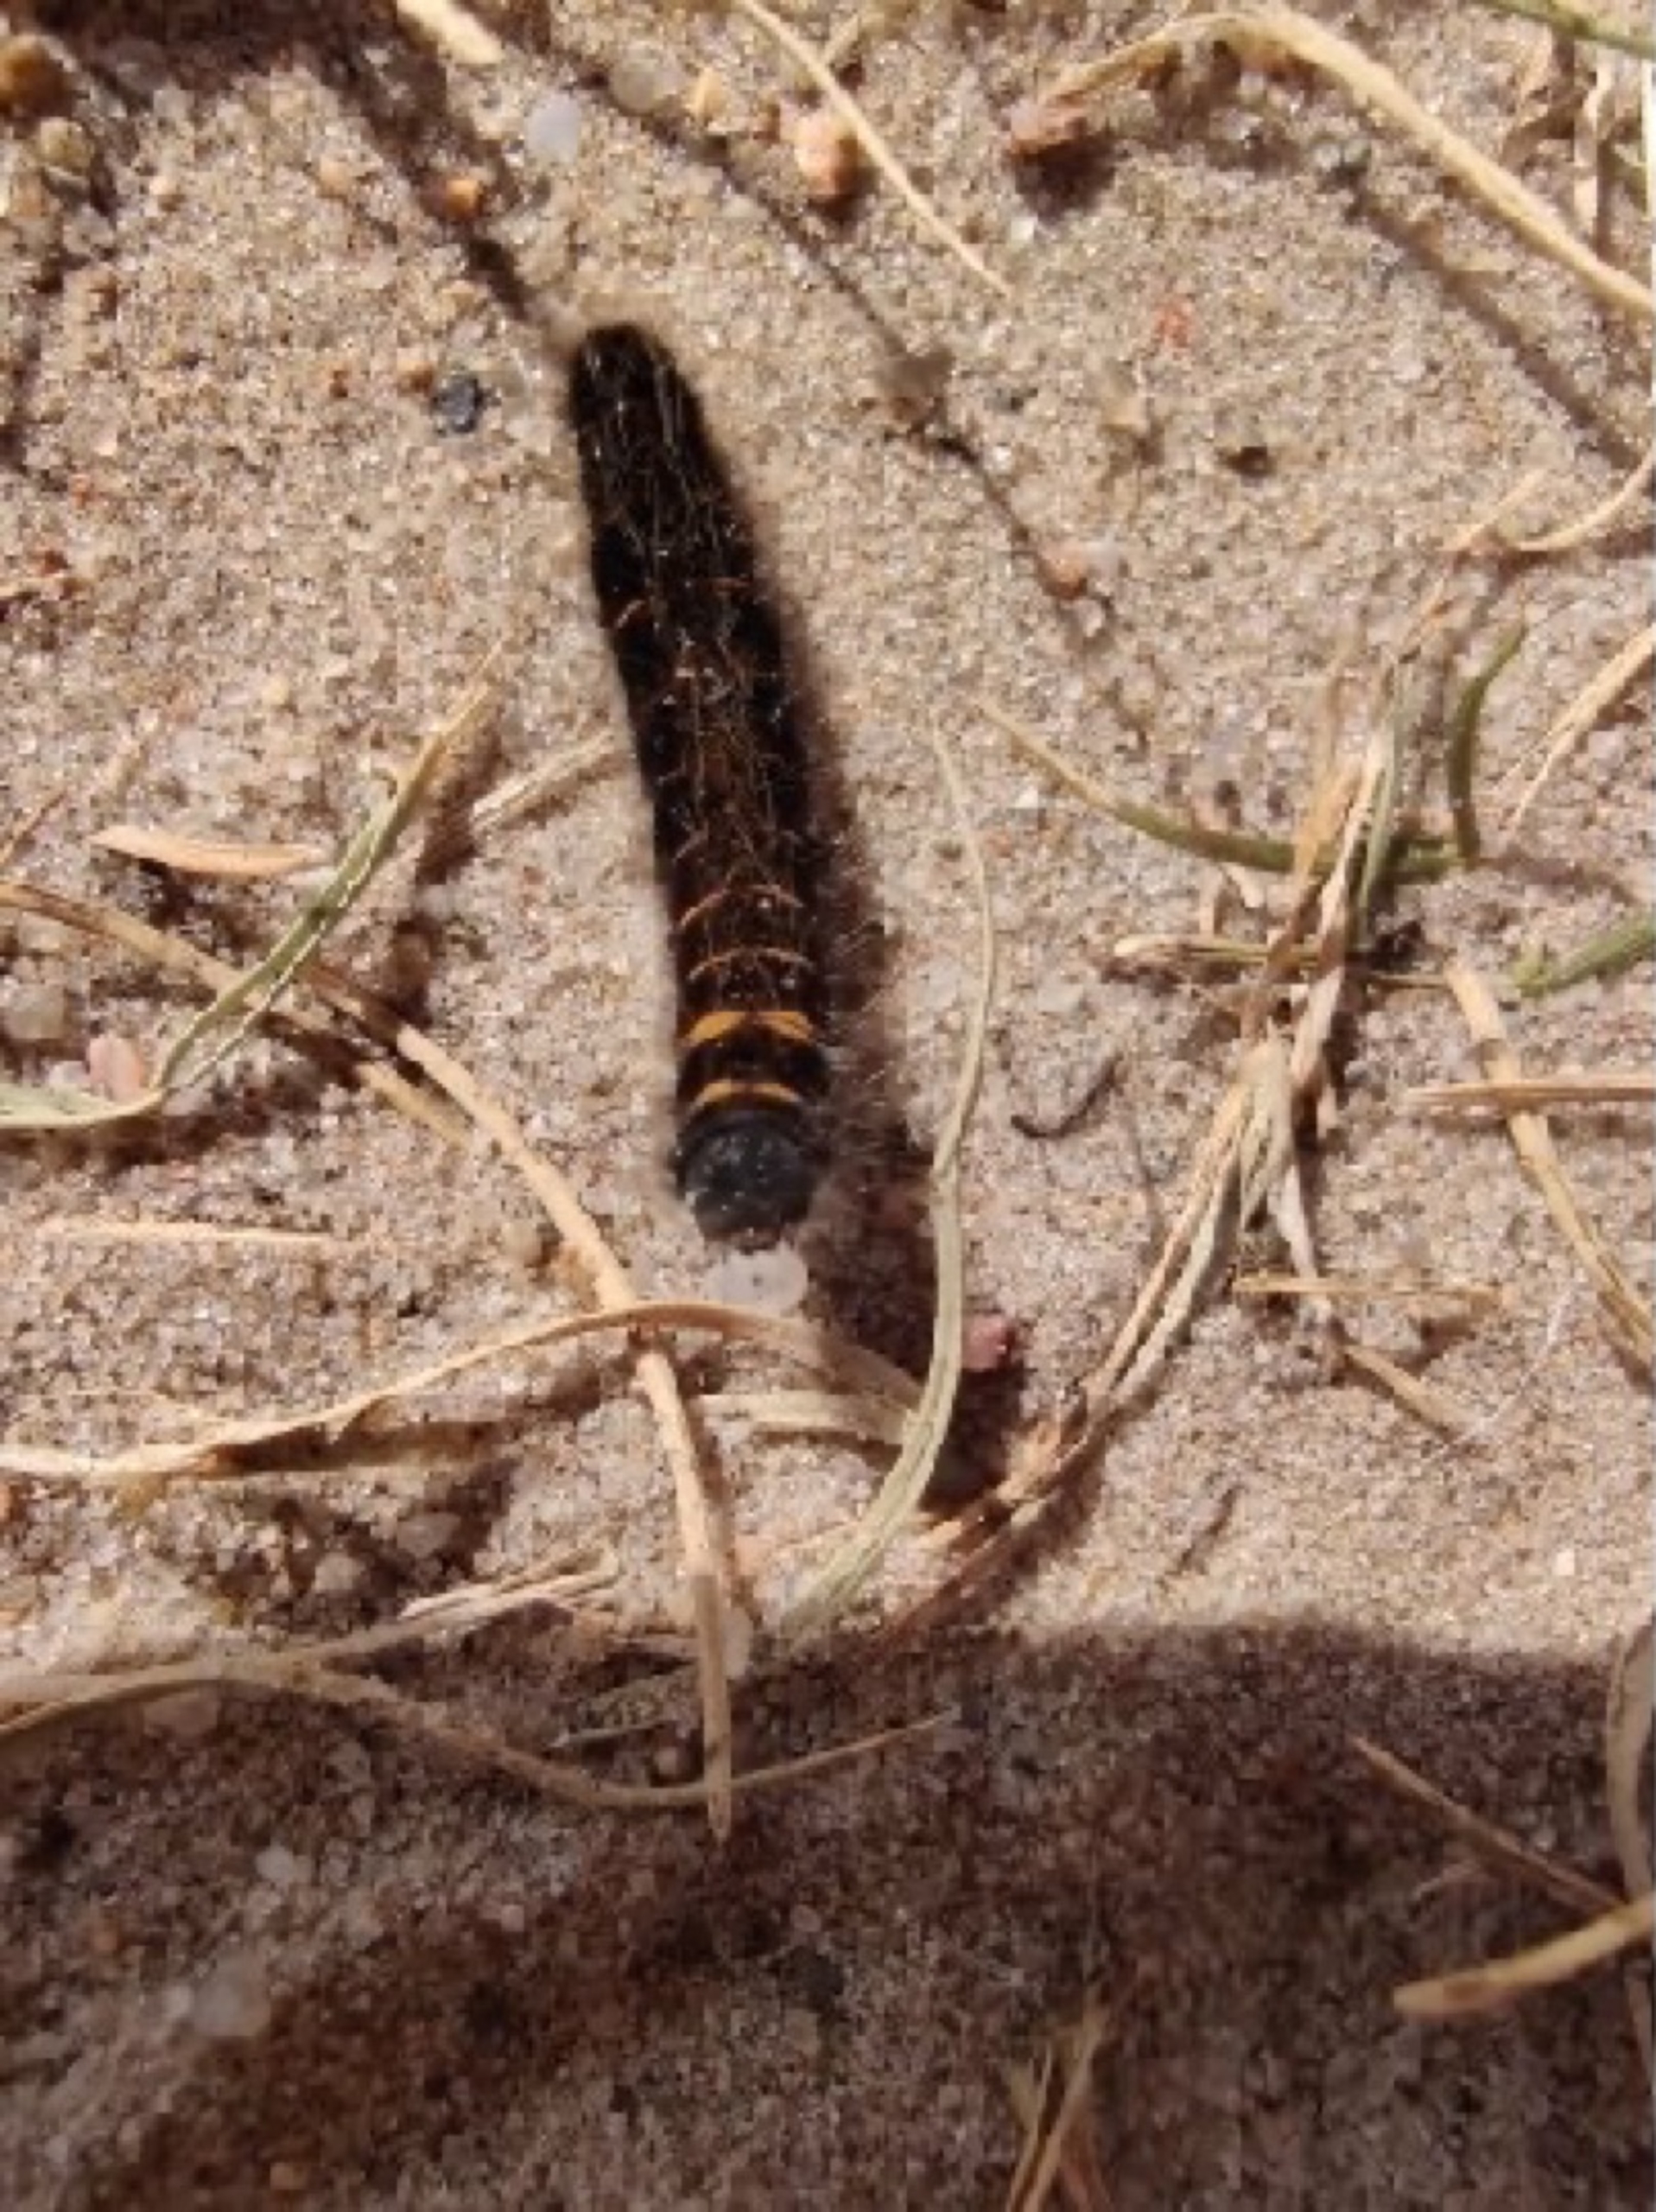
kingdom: Animalia
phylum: Arthropoda
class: Insecta
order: Lepidoptera
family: Lasiocampidae
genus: Macrothylacia
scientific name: Macrothylacia rubi
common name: Brombærspinder
